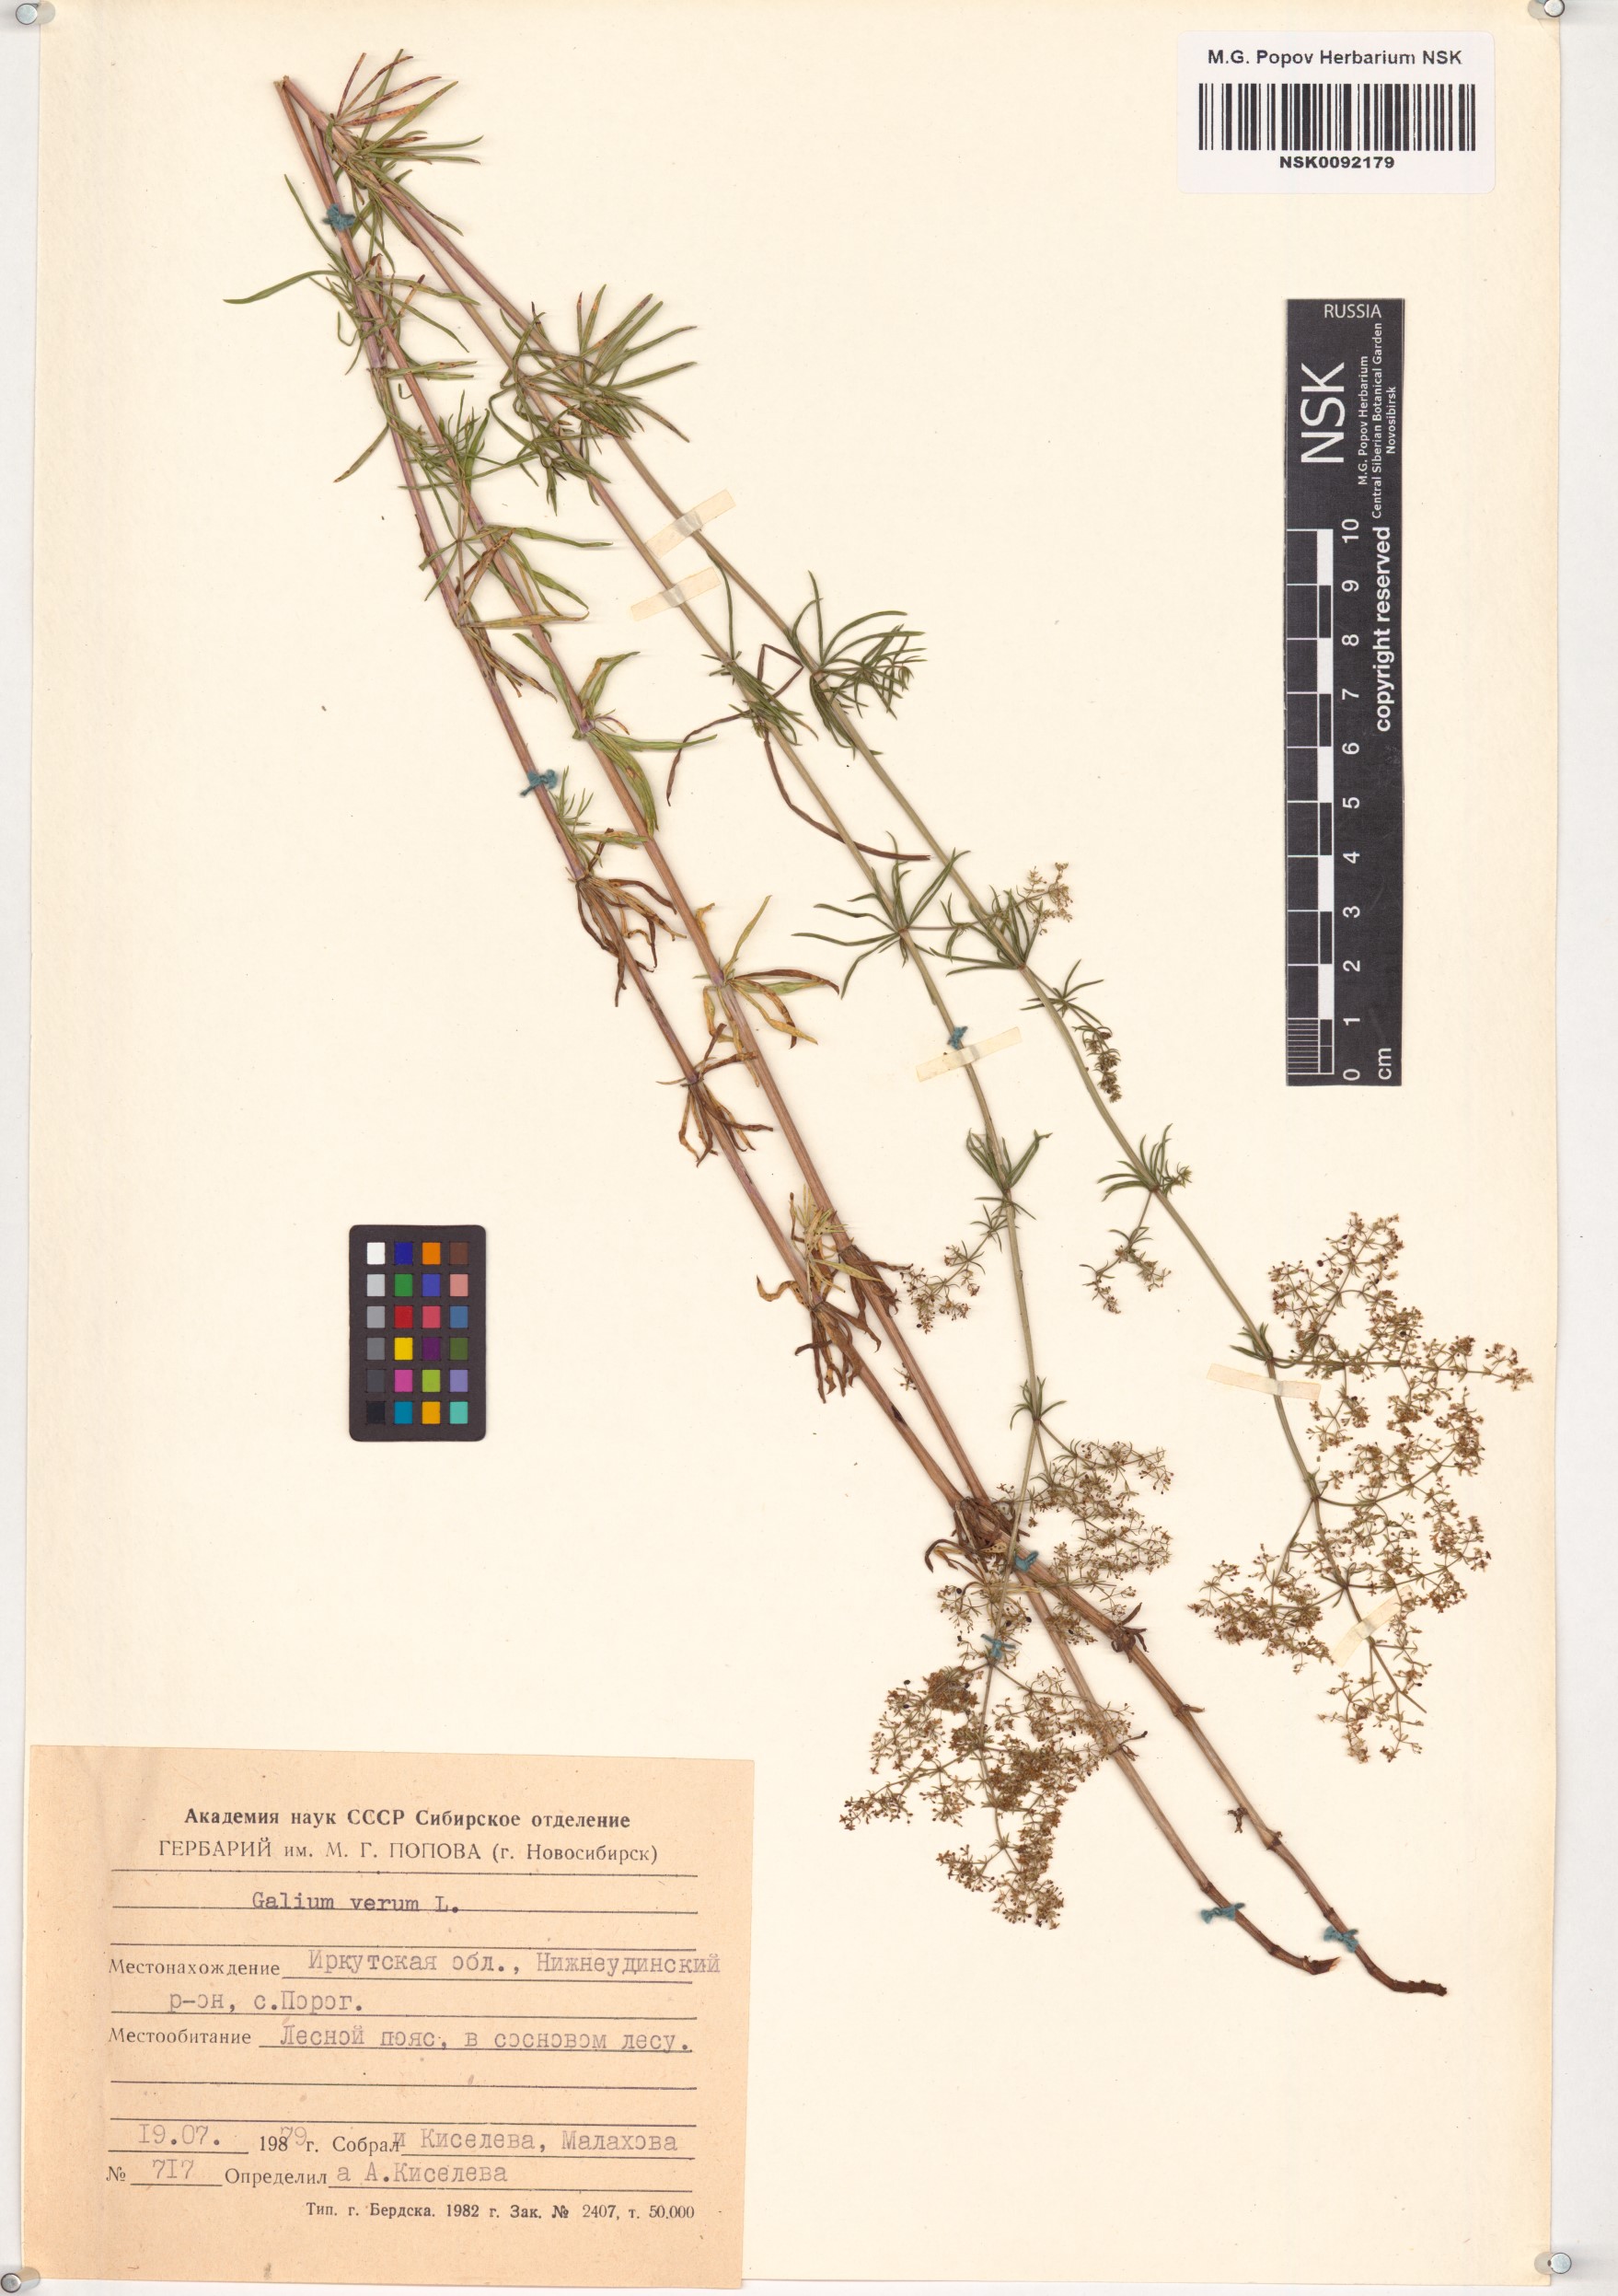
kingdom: Plantae
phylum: Tracheophyta
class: Magnoliopsida
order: Gentianales
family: Rubiaceae
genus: Galium
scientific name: Galium verum
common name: Lady's bedstraw
